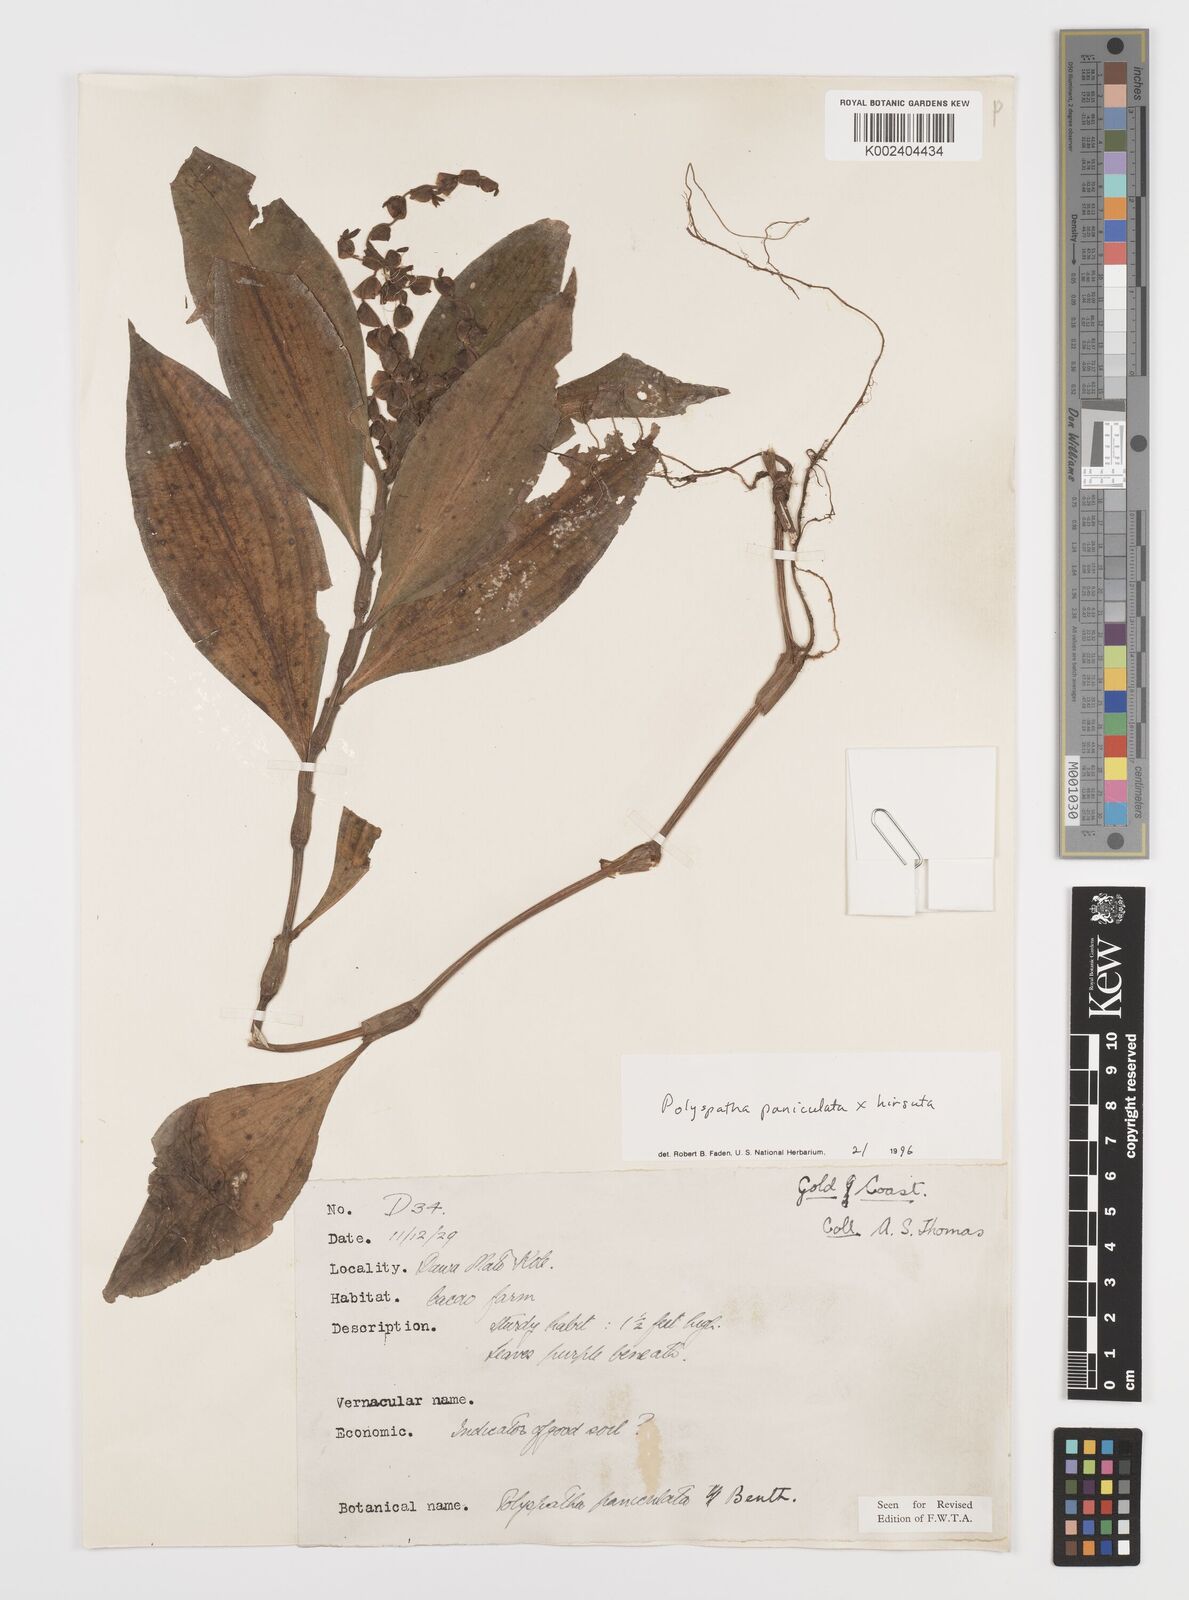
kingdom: Plantae
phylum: Tracheophyta
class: Liliopsida
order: Commelinales
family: Commelinaceae
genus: Polyspatha
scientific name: Polyspatha
